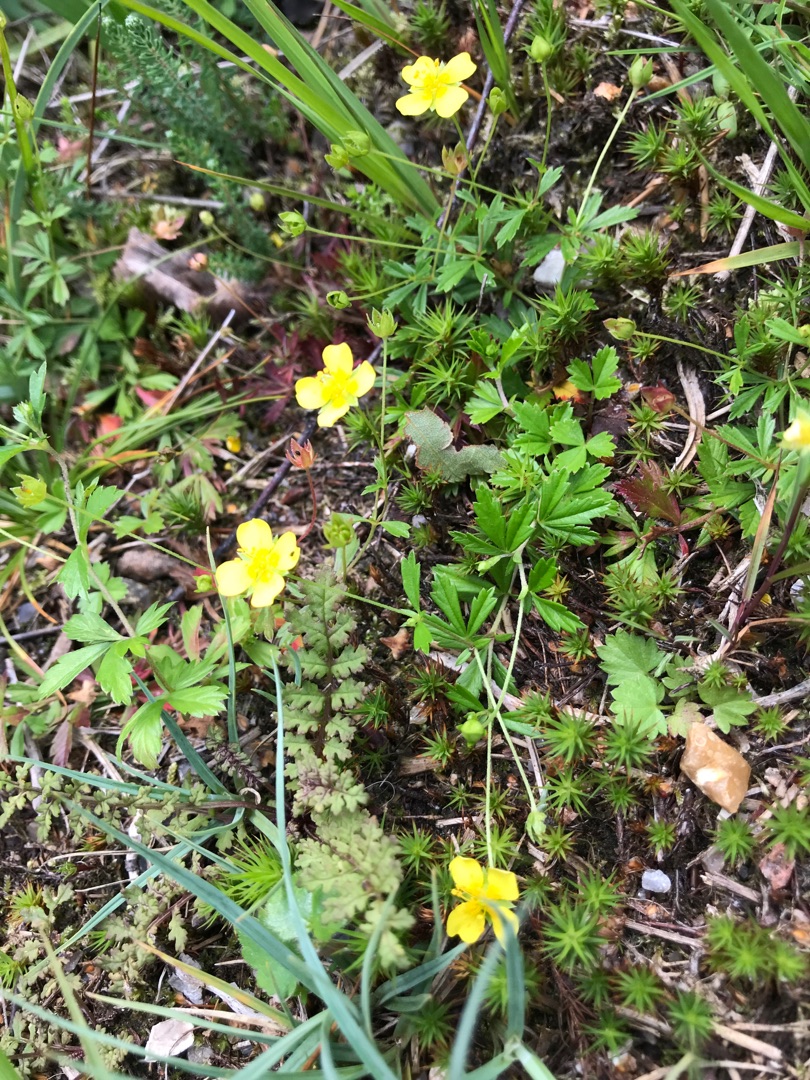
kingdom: Plantae
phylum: Tracheophyta
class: Magnoliopsida
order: Rosales
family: Rosaceae
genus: Potentilla
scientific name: Potentilla erecta
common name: Tormentil
